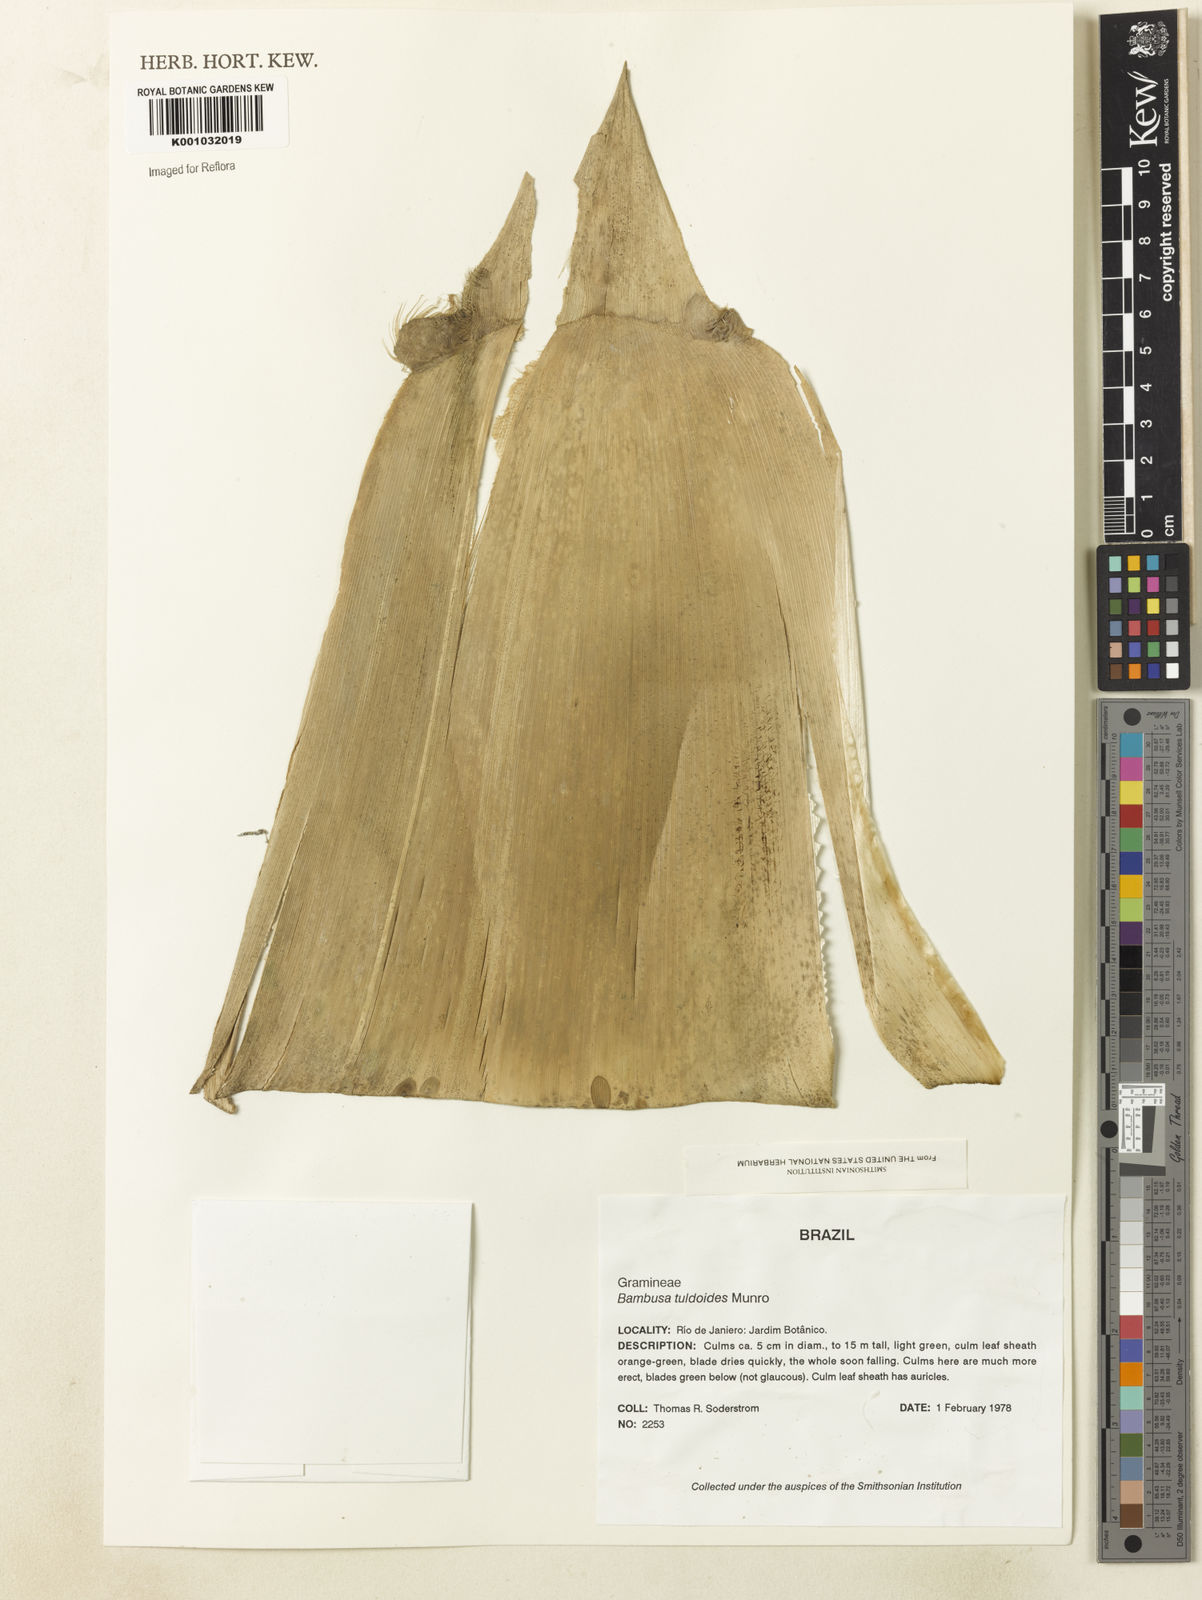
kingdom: Plantae
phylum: Tracheophyta
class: Liliopsida
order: Poales
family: Poaceae
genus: Bambusa
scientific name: Bambusa tuldoides
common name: Verdant bamboo
